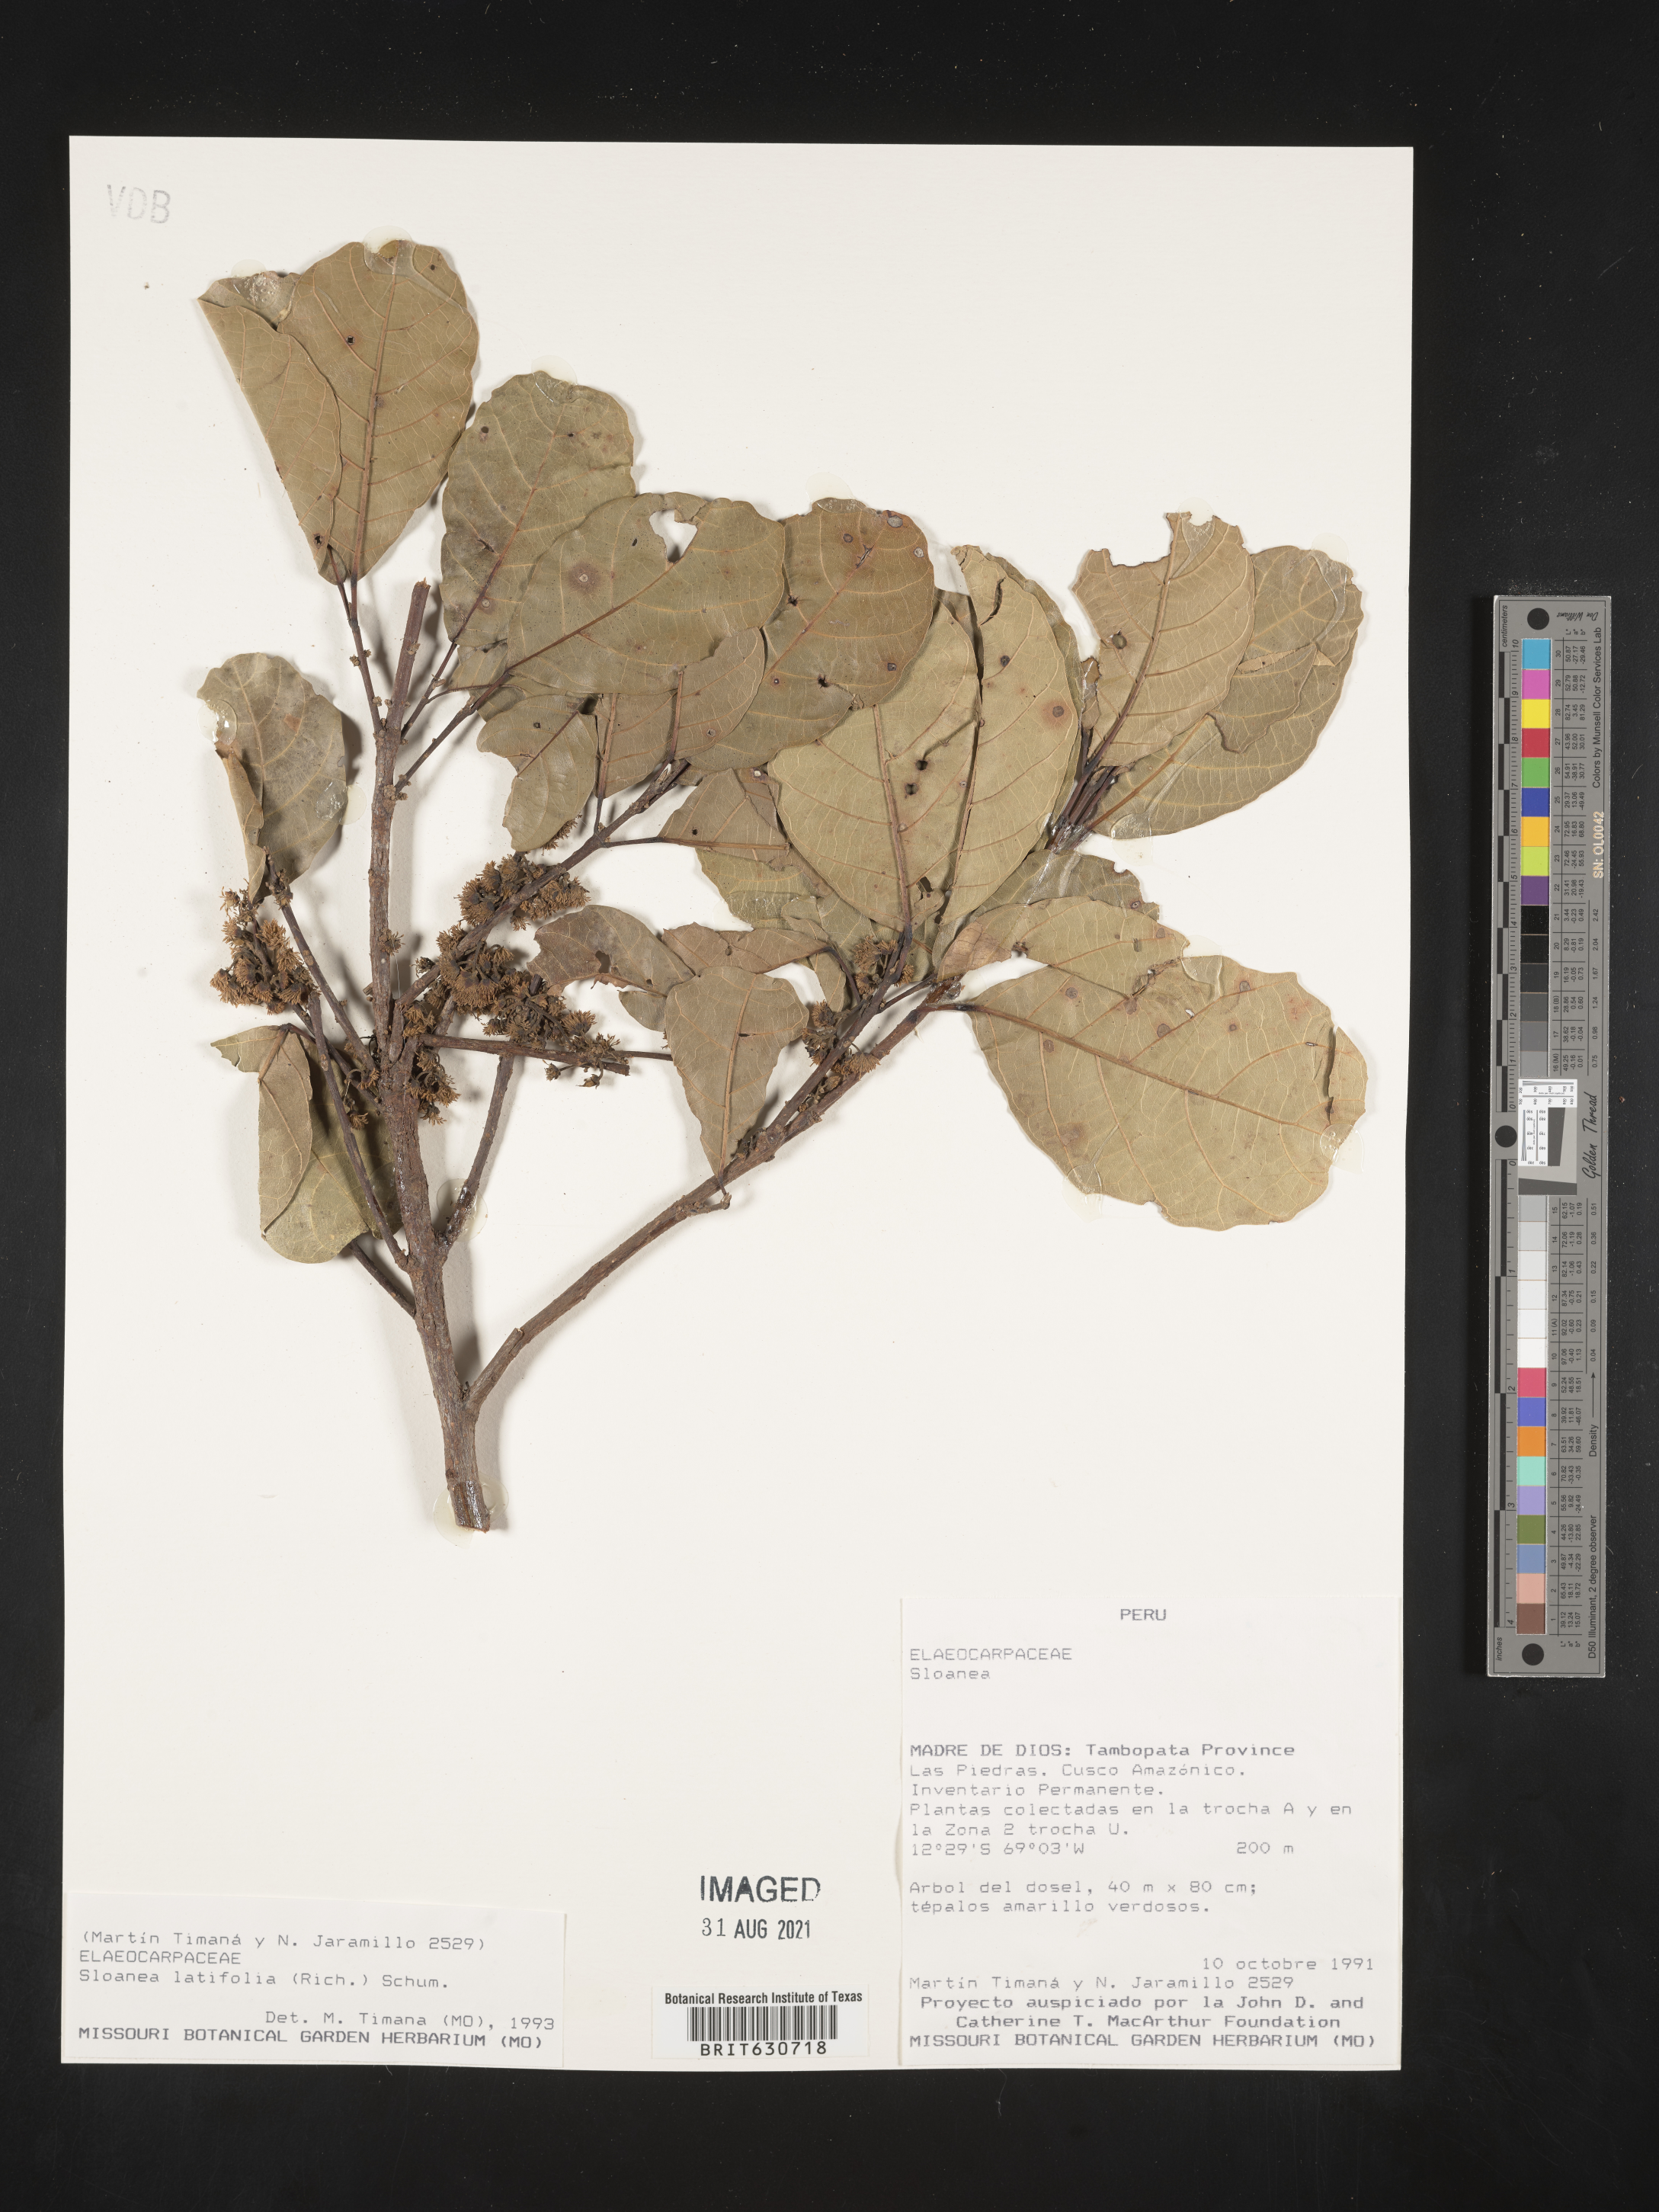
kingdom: Plantae
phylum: Tracheophyta
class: Magnoliopsida
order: Oxalidales
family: Elaeocarpaceae
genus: Sloanea
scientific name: Sloanea
